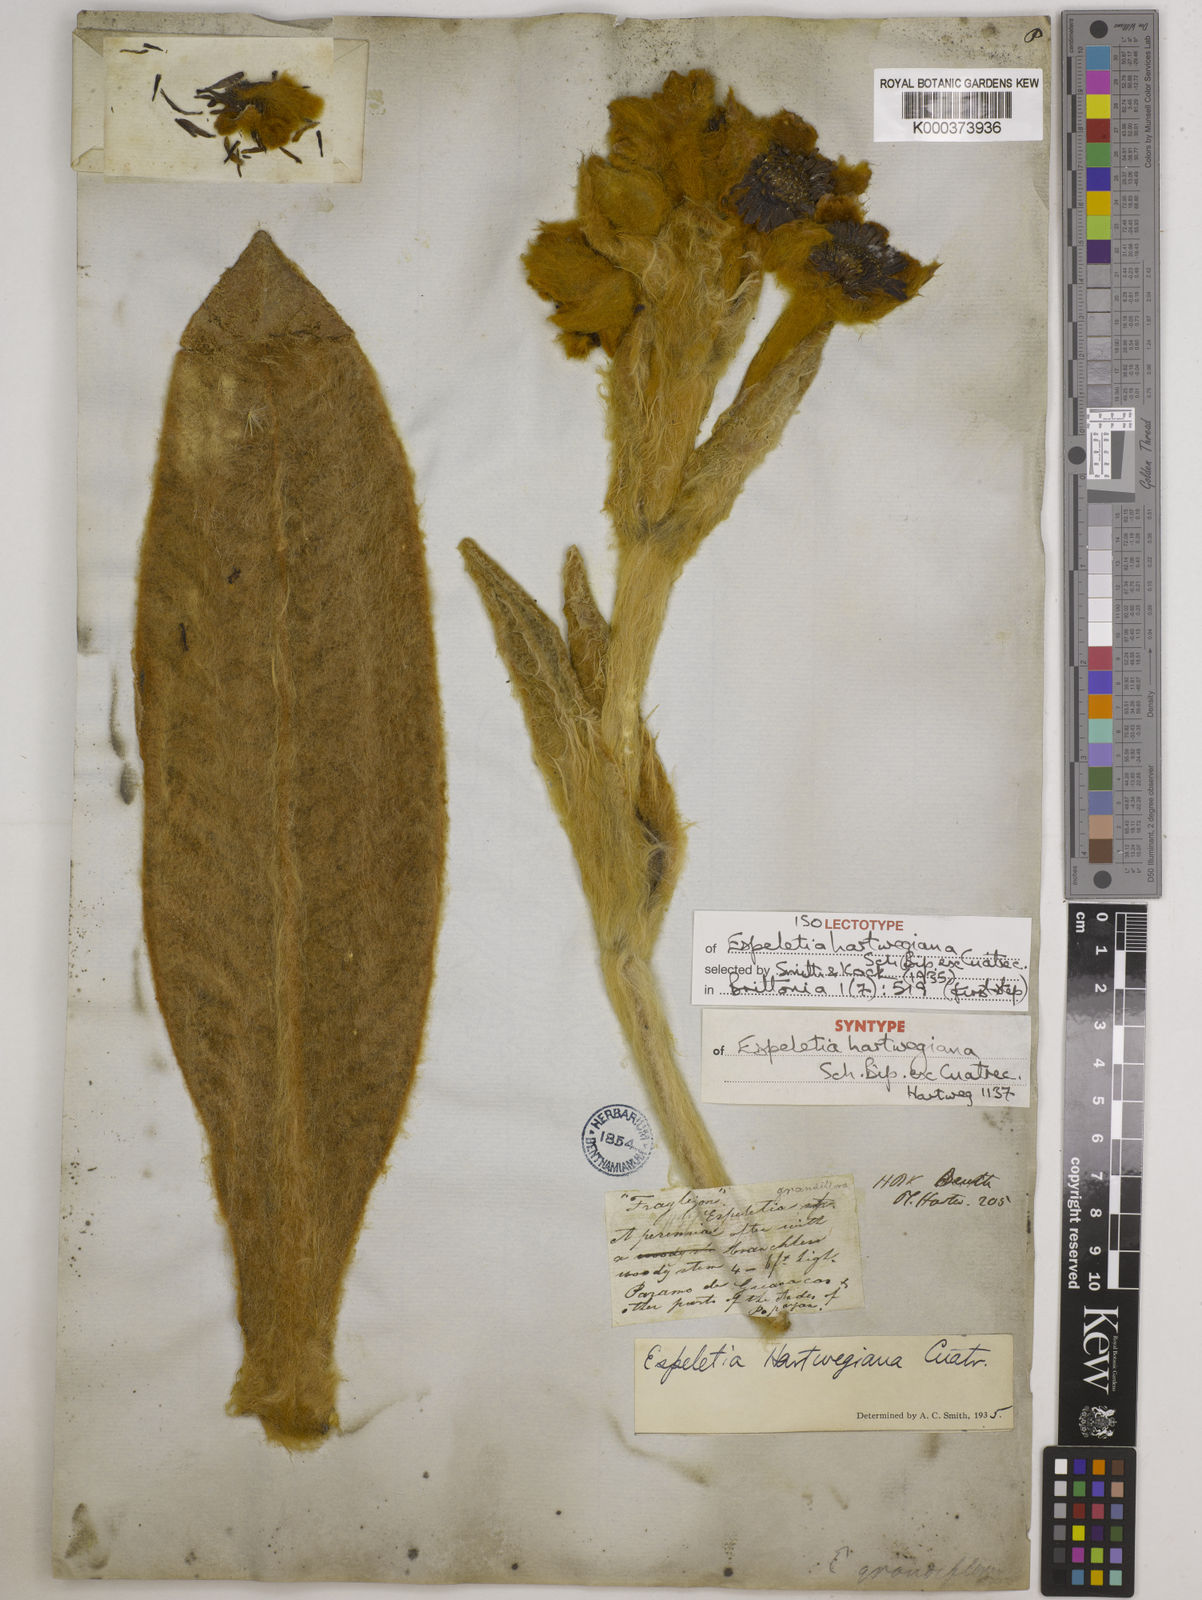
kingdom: Plantae
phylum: Tracheophyta
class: Magnoliopsida
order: Asterales
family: Asteraceae
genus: Espeletia
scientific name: Espeletia hartwegiana
